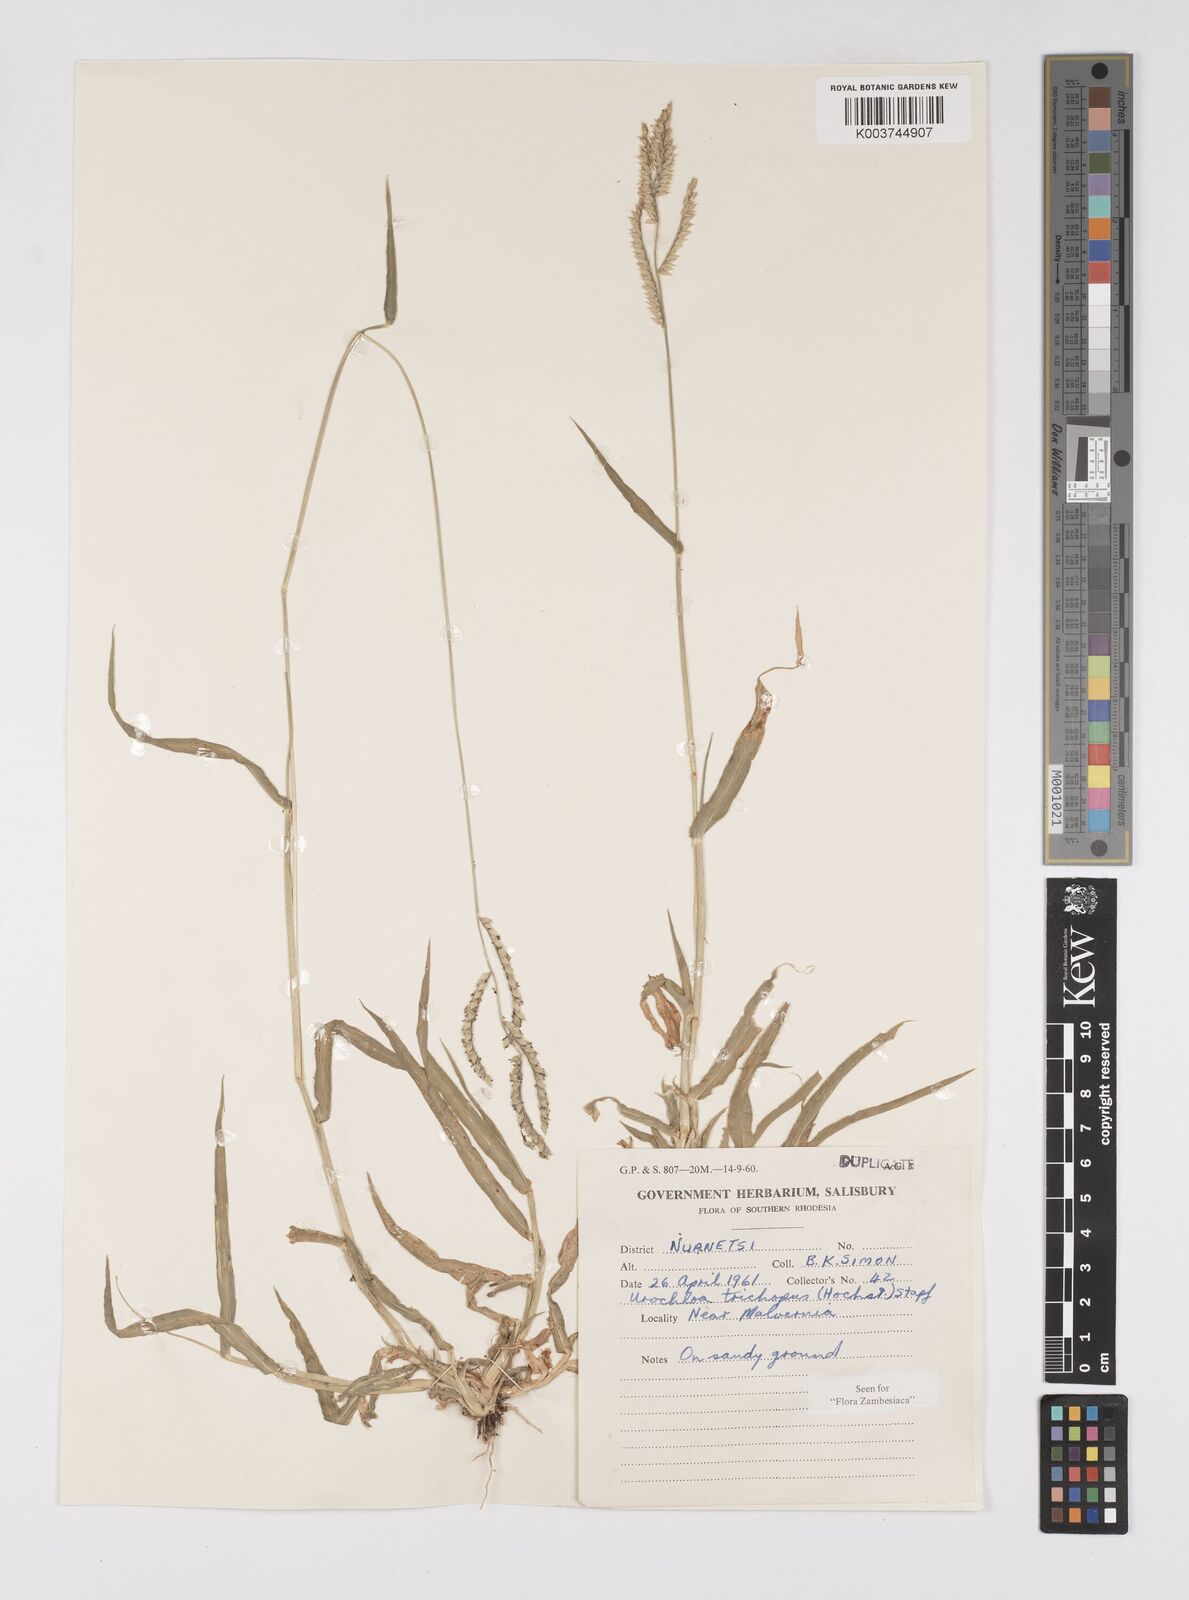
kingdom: Plantae
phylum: Tracheophyta
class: Liliopsida
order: Poales
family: Poaceae
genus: Urochloa
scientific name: Urochloa trichopus
